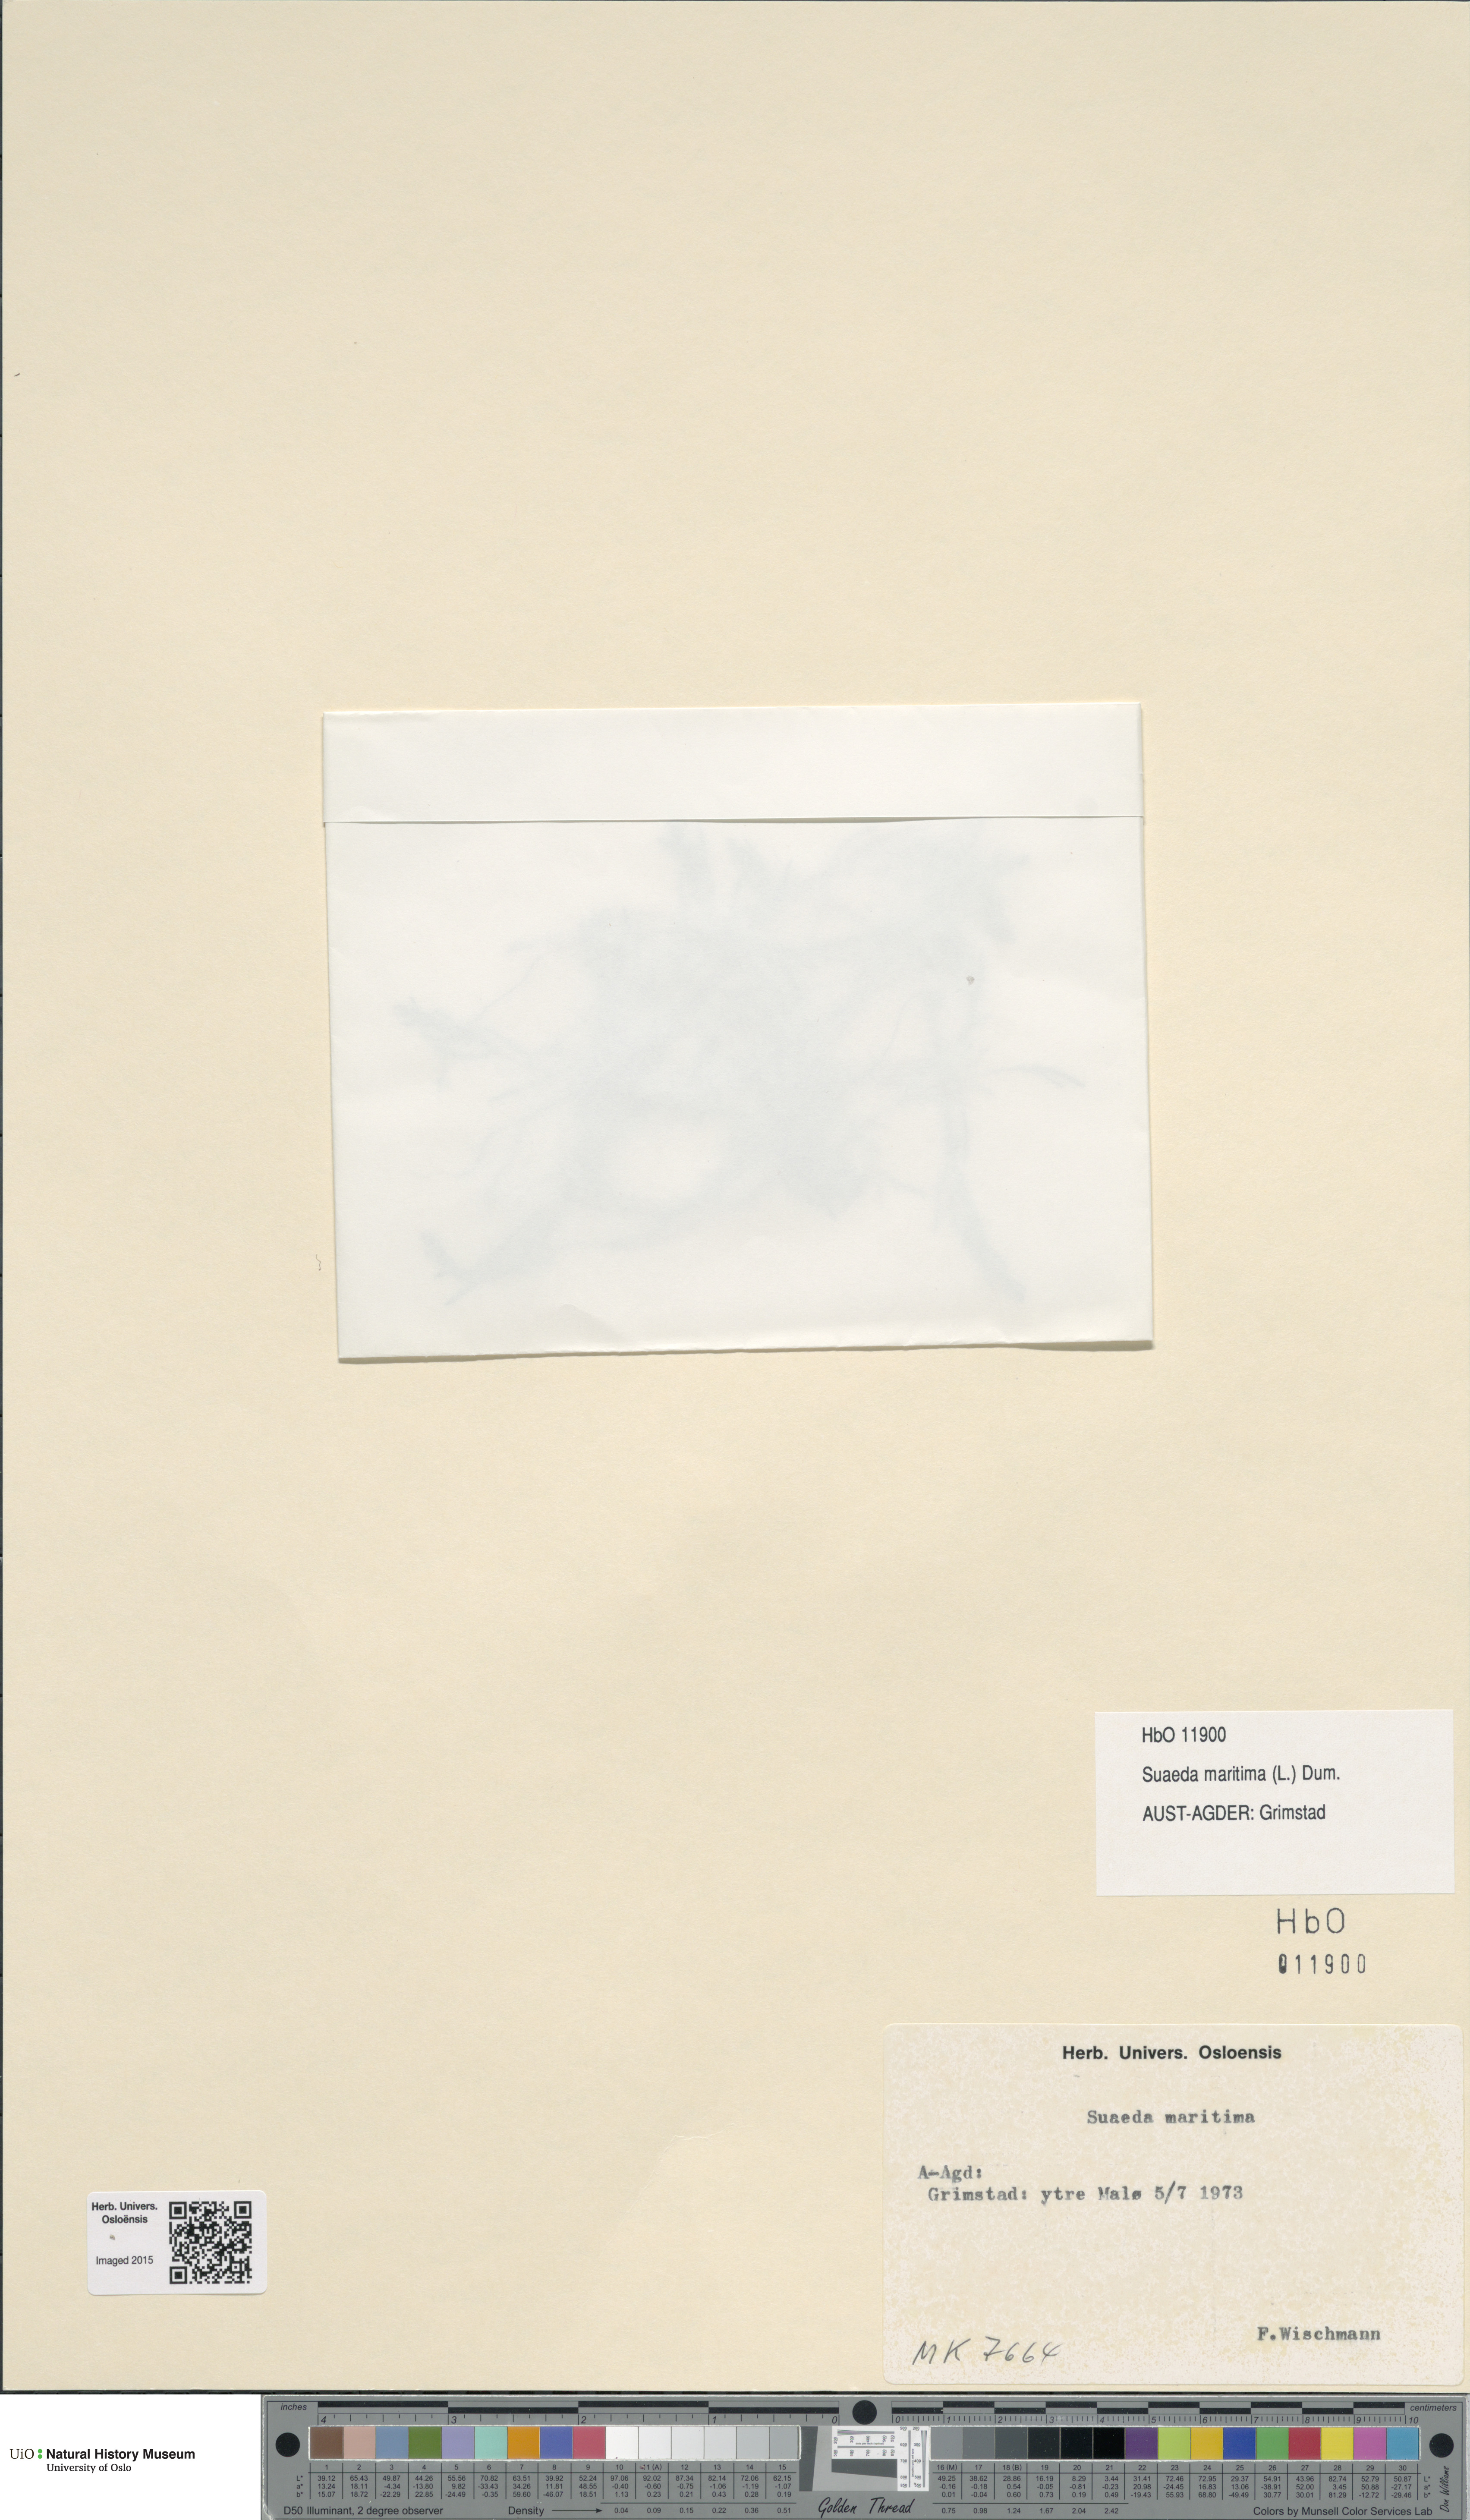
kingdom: Plantae
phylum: Tracheophyta
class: Magnoliopsida
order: Caryophyllales
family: Amaranthaceae
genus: Suaeda
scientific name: Suaeda maritima
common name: Annual sea-blite
